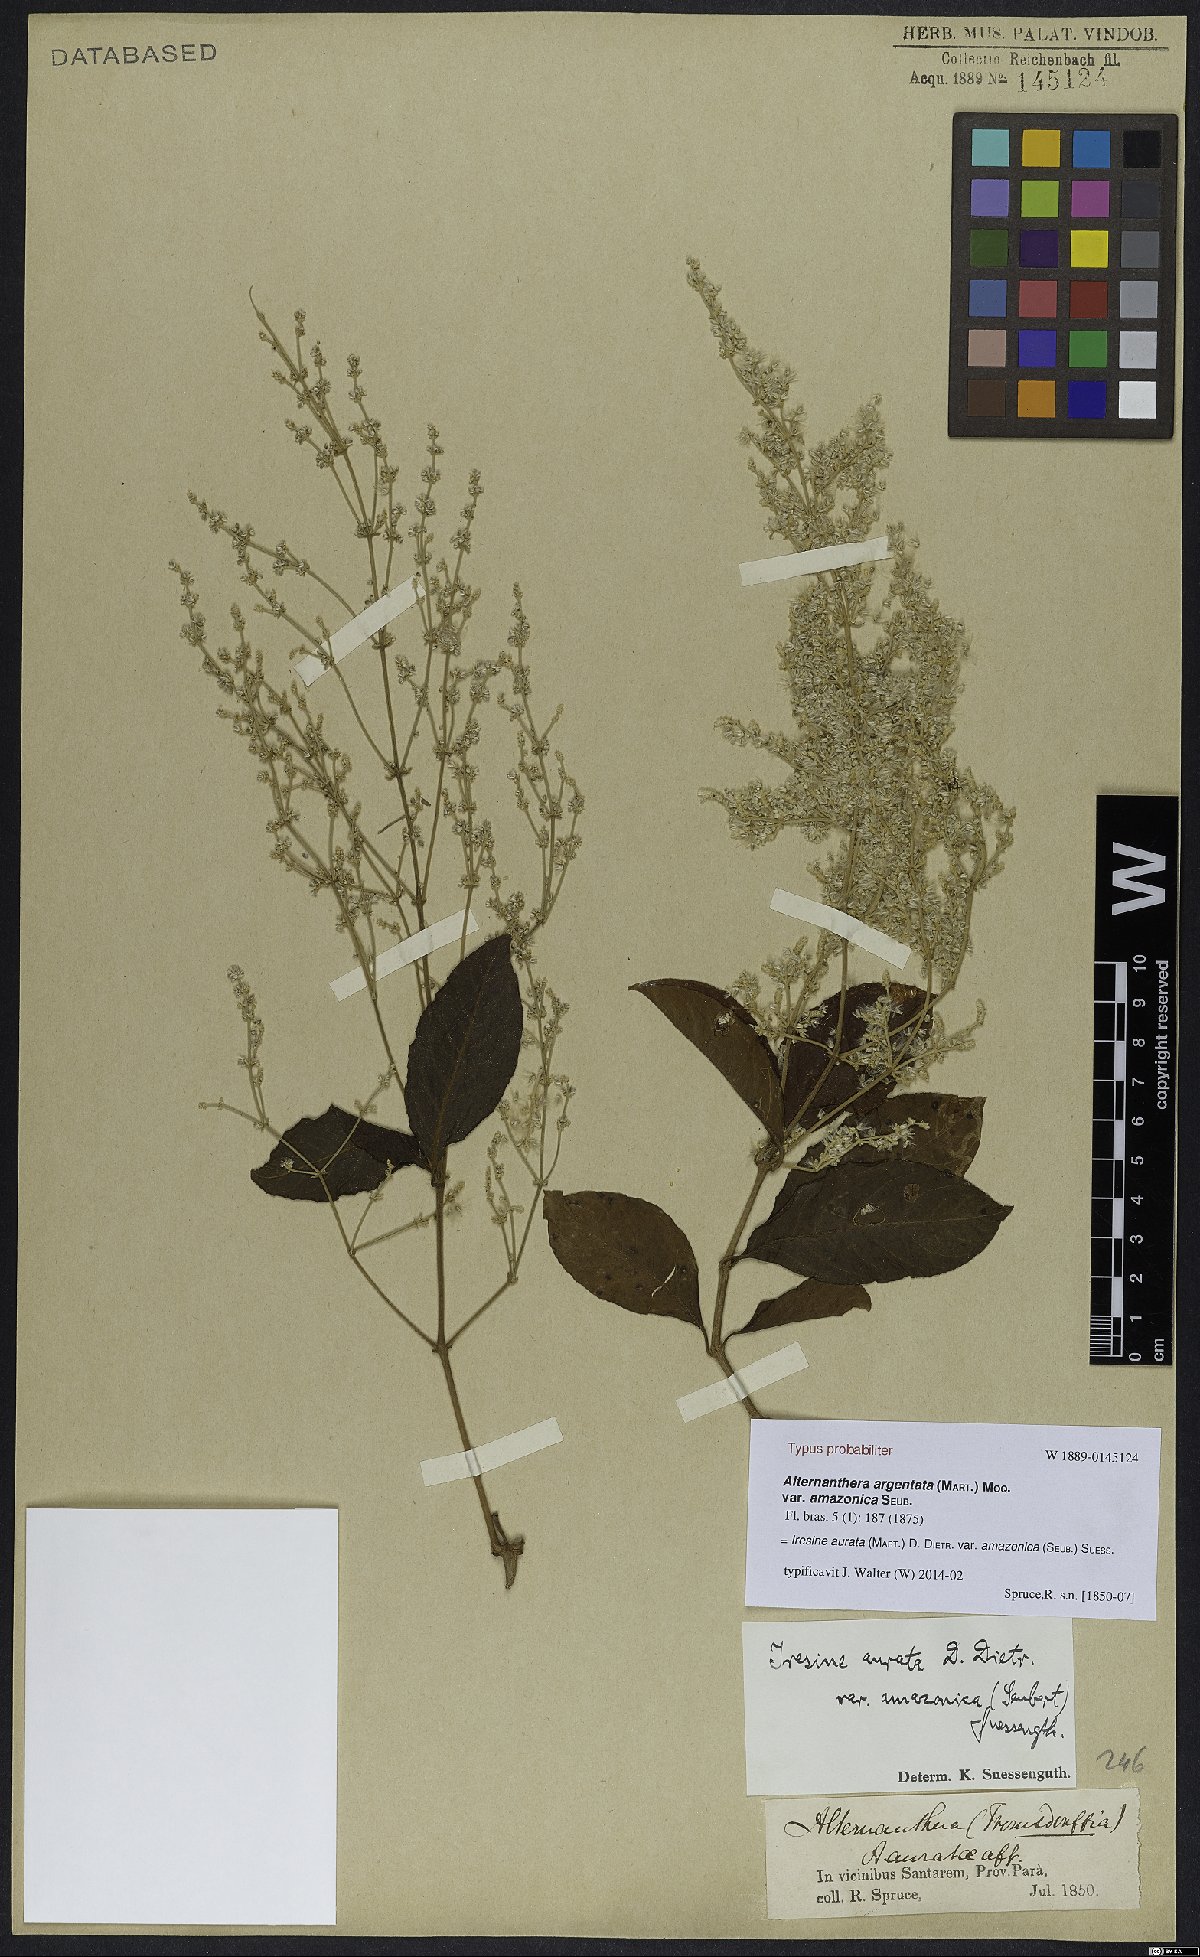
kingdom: Plantae
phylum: Tracheophyta
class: Magnoliopsida
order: Caryophyllales
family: Amaranthaceae
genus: Pedersenia
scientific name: Pedersenia argentata
